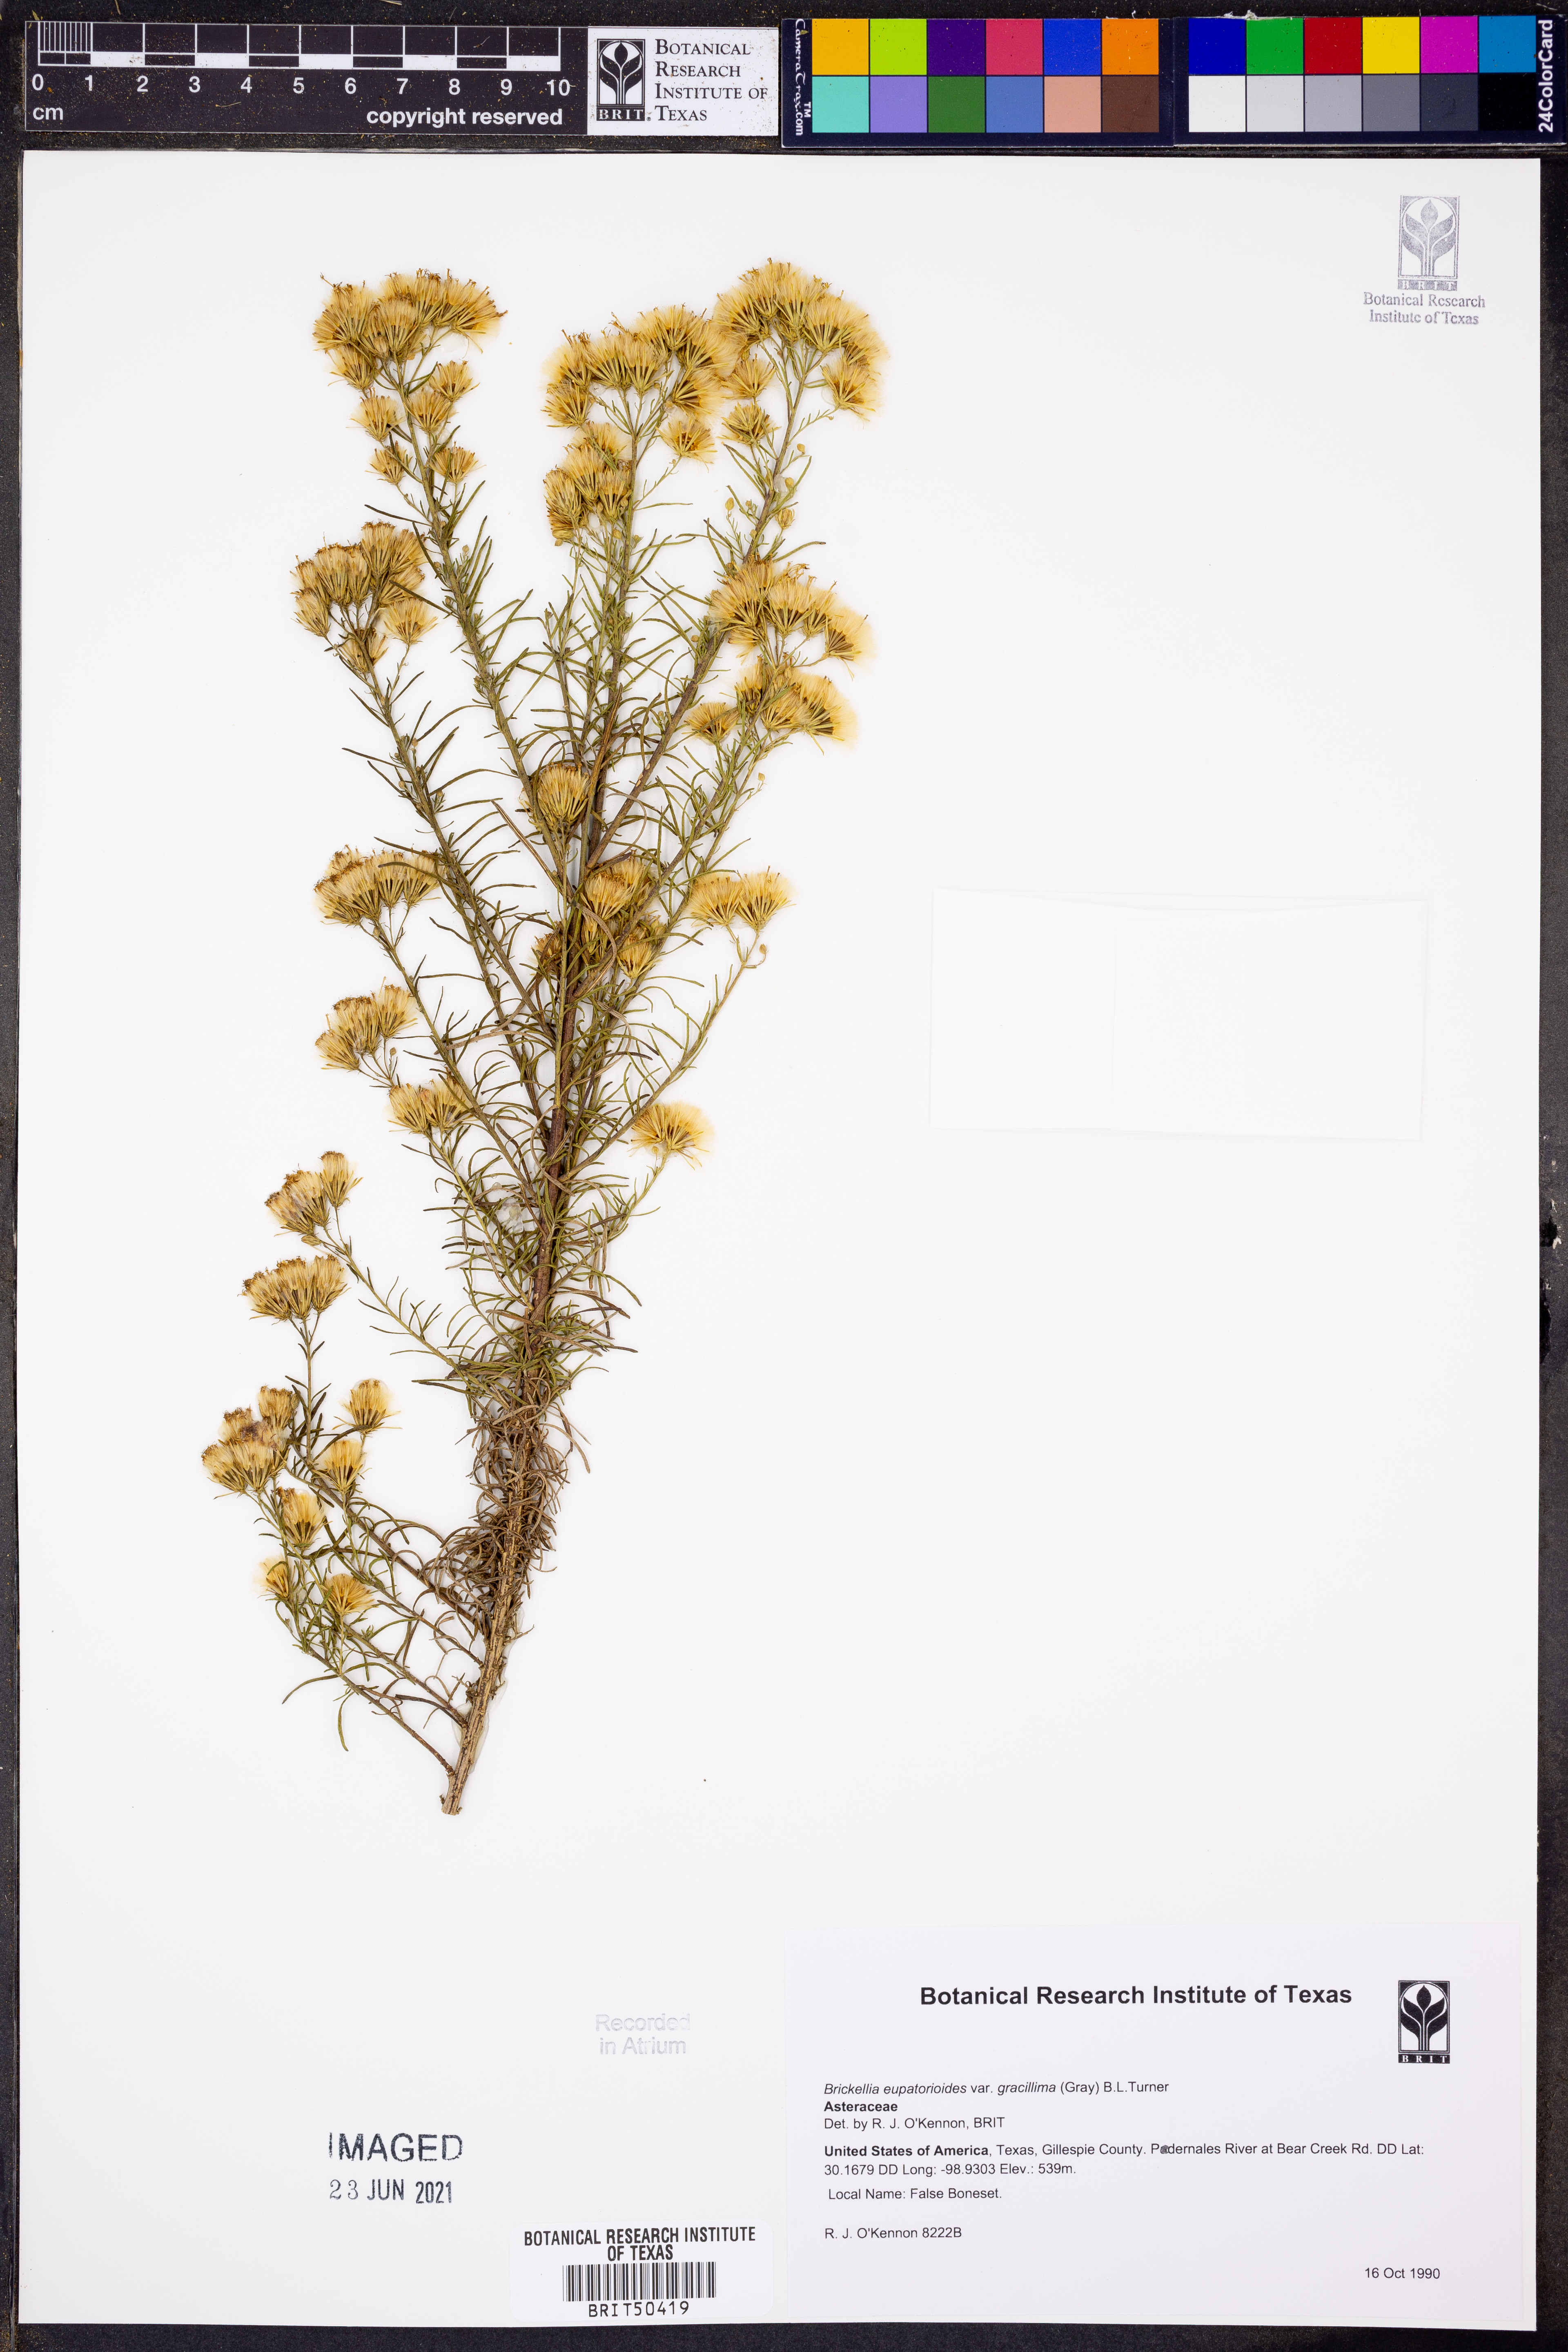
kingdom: Plantae
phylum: Tracheophyta
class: Magnoliopsida
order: Asterales
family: Asteraceae
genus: Brickellia
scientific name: Brickellia leptophylla
